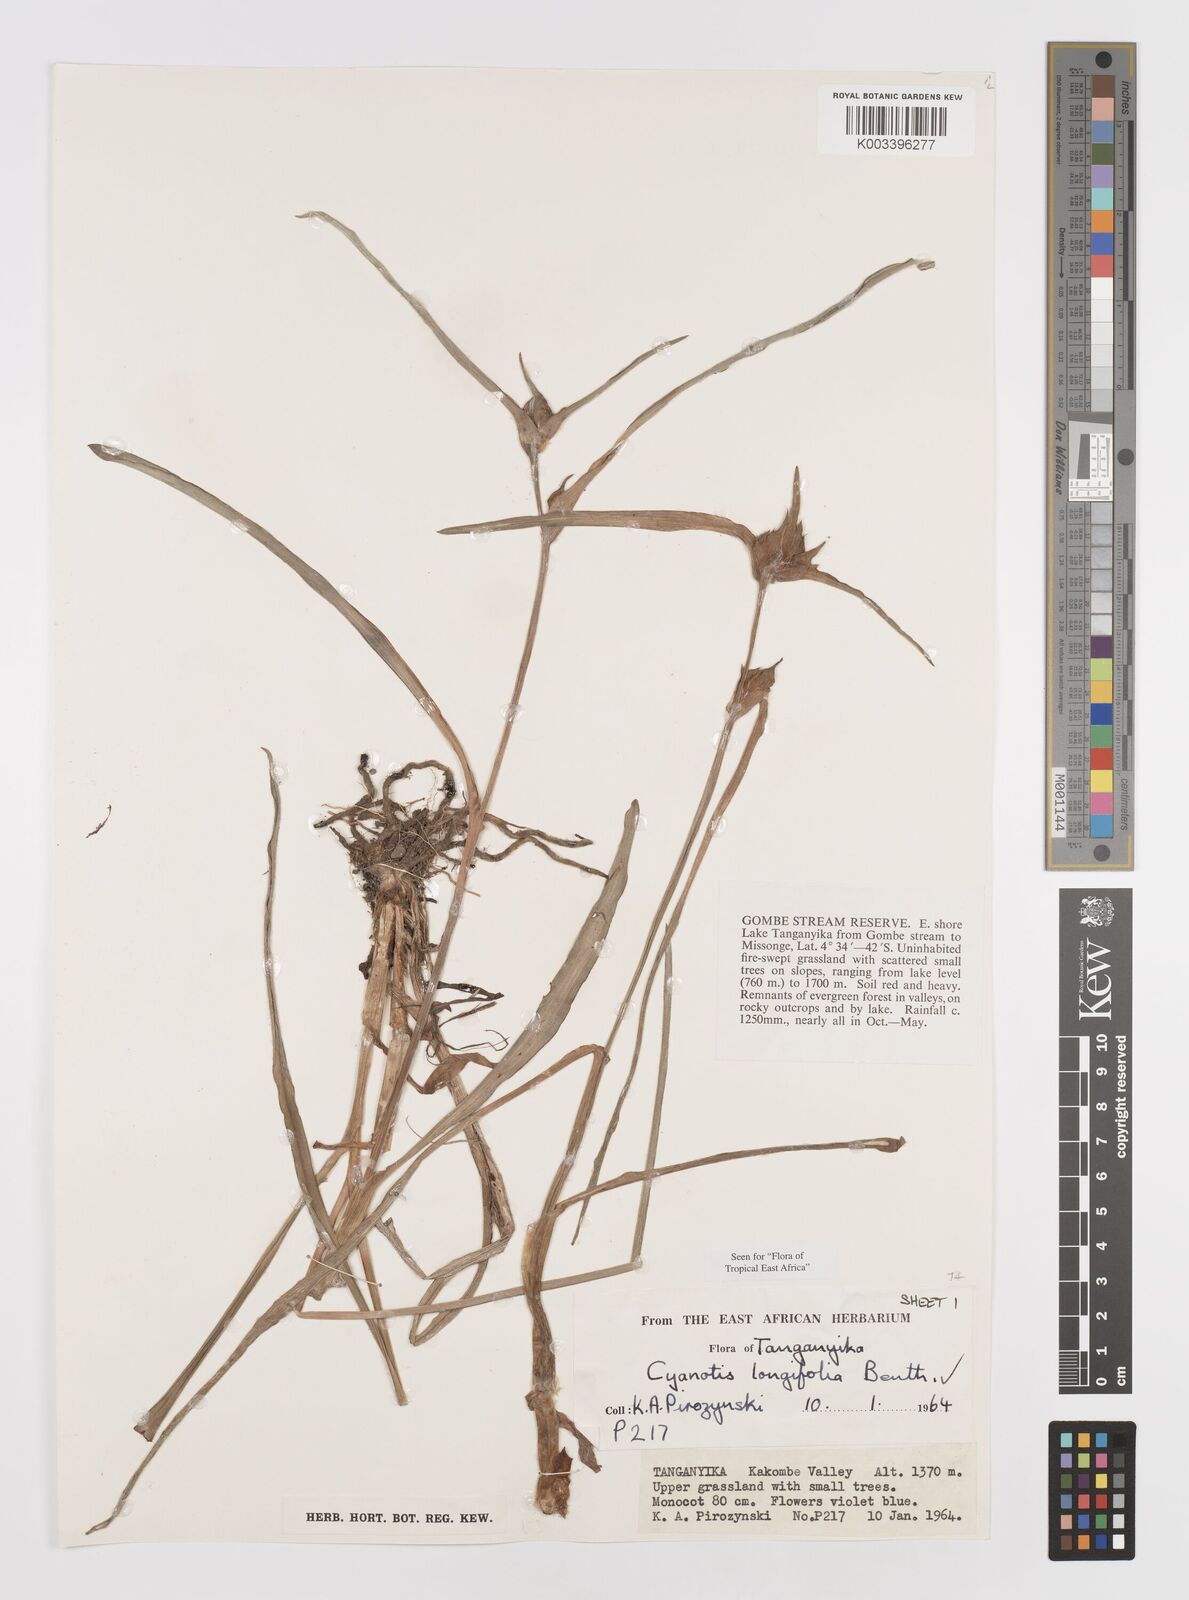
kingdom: Plantae
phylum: Tracheophyta
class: Liliopsida
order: Commelinales
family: Commelinaceae
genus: Cyanotis
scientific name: Cyanotis longifolia
